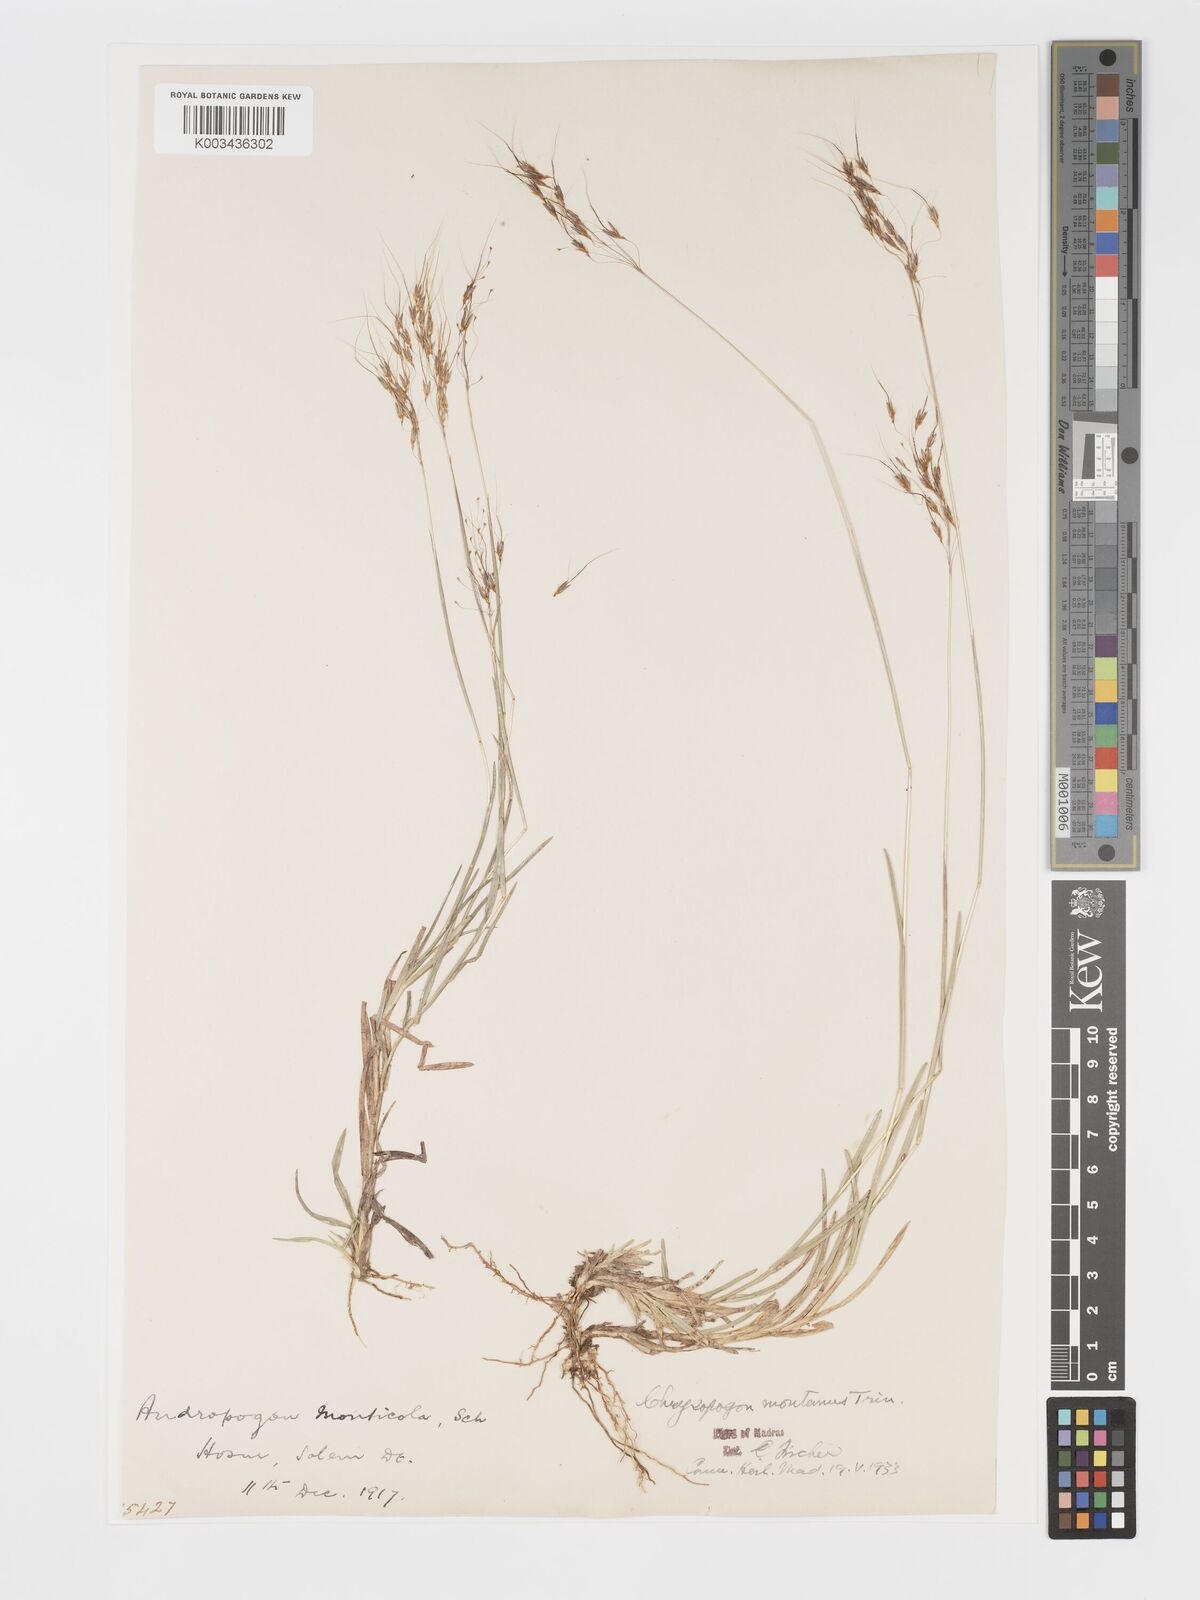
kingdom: Plantae
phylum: Tracheophyta
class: Liliopsida
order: Poales
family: Poaceae
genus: Chrysopogon
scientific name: Chrysopogon fulvus
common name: Red false beardgrass
